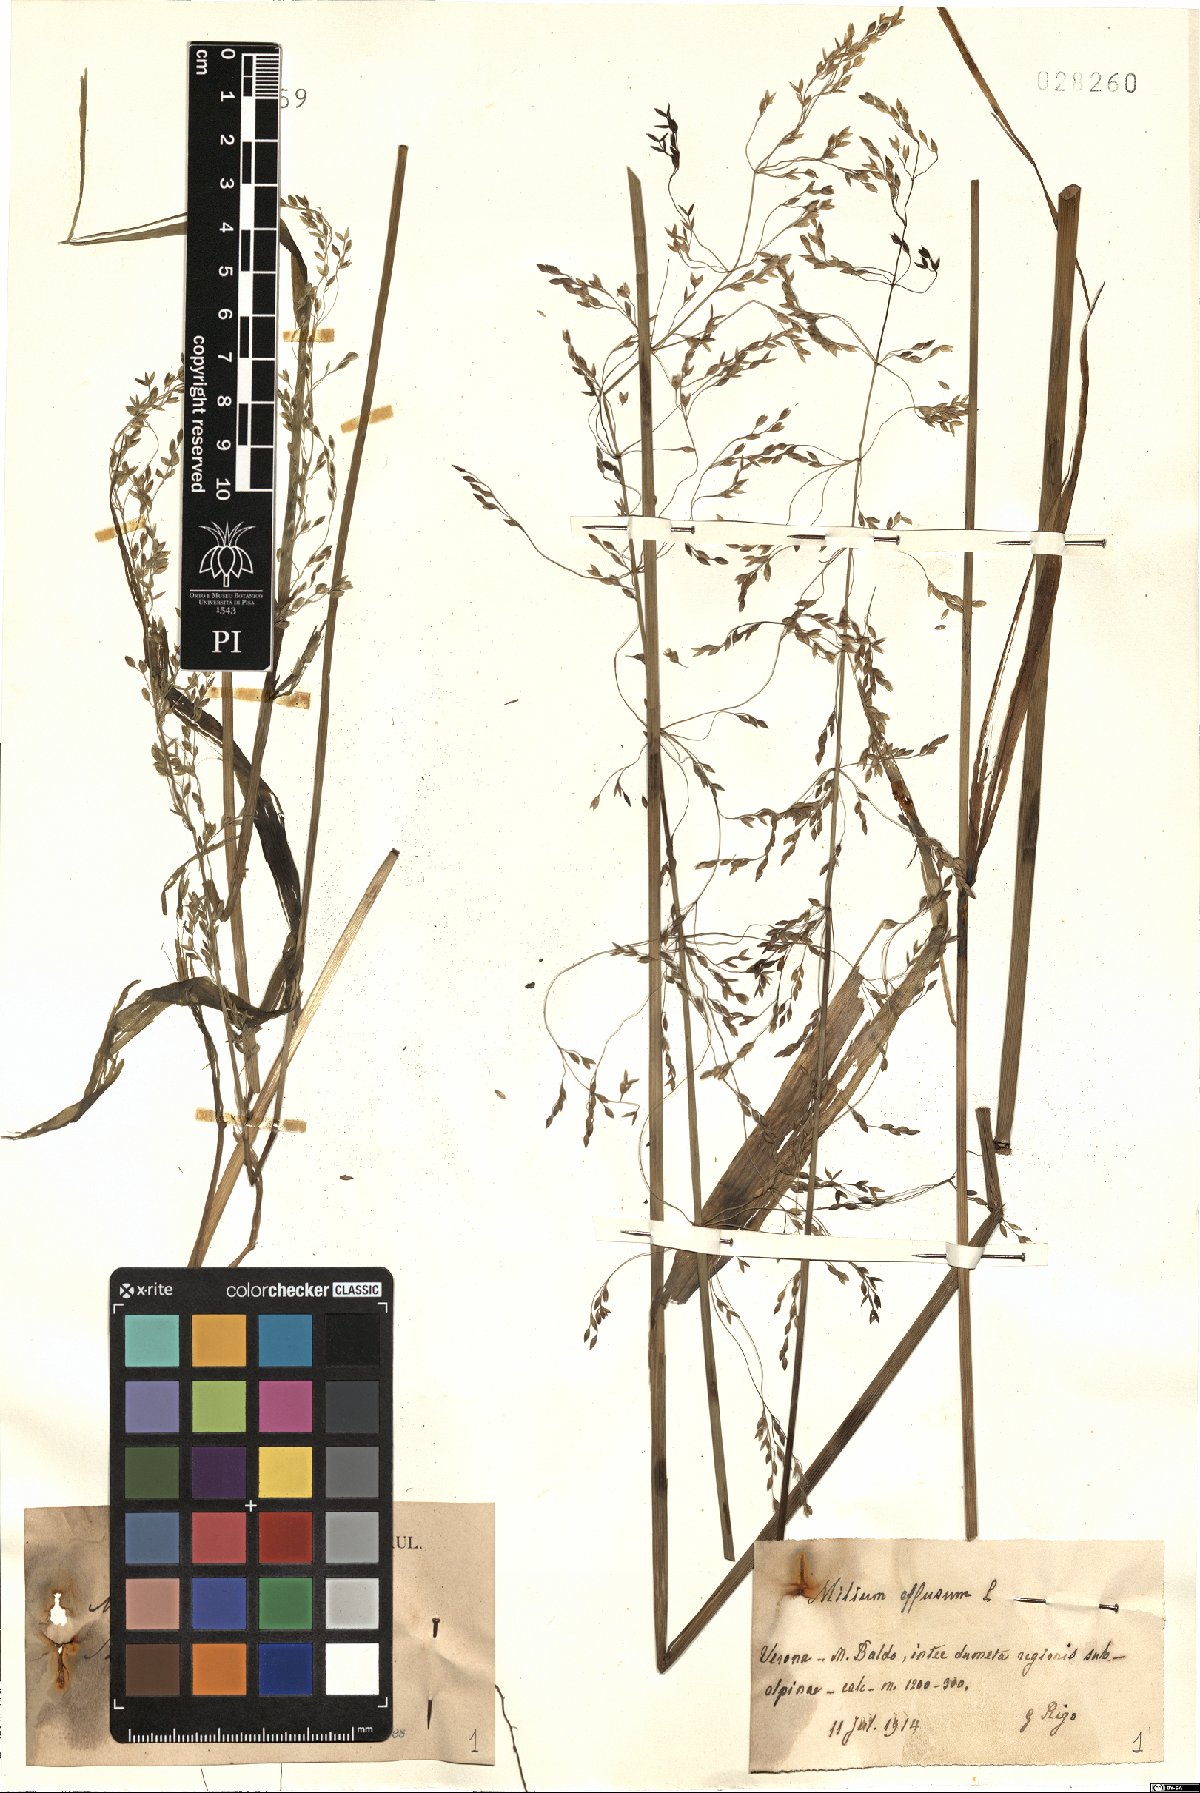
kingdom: Plantae
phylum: Tracheophyta
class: Liliopsida
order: Poales
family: Poaceae
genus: Milium
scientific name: Milium effusum
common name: Wood millet
